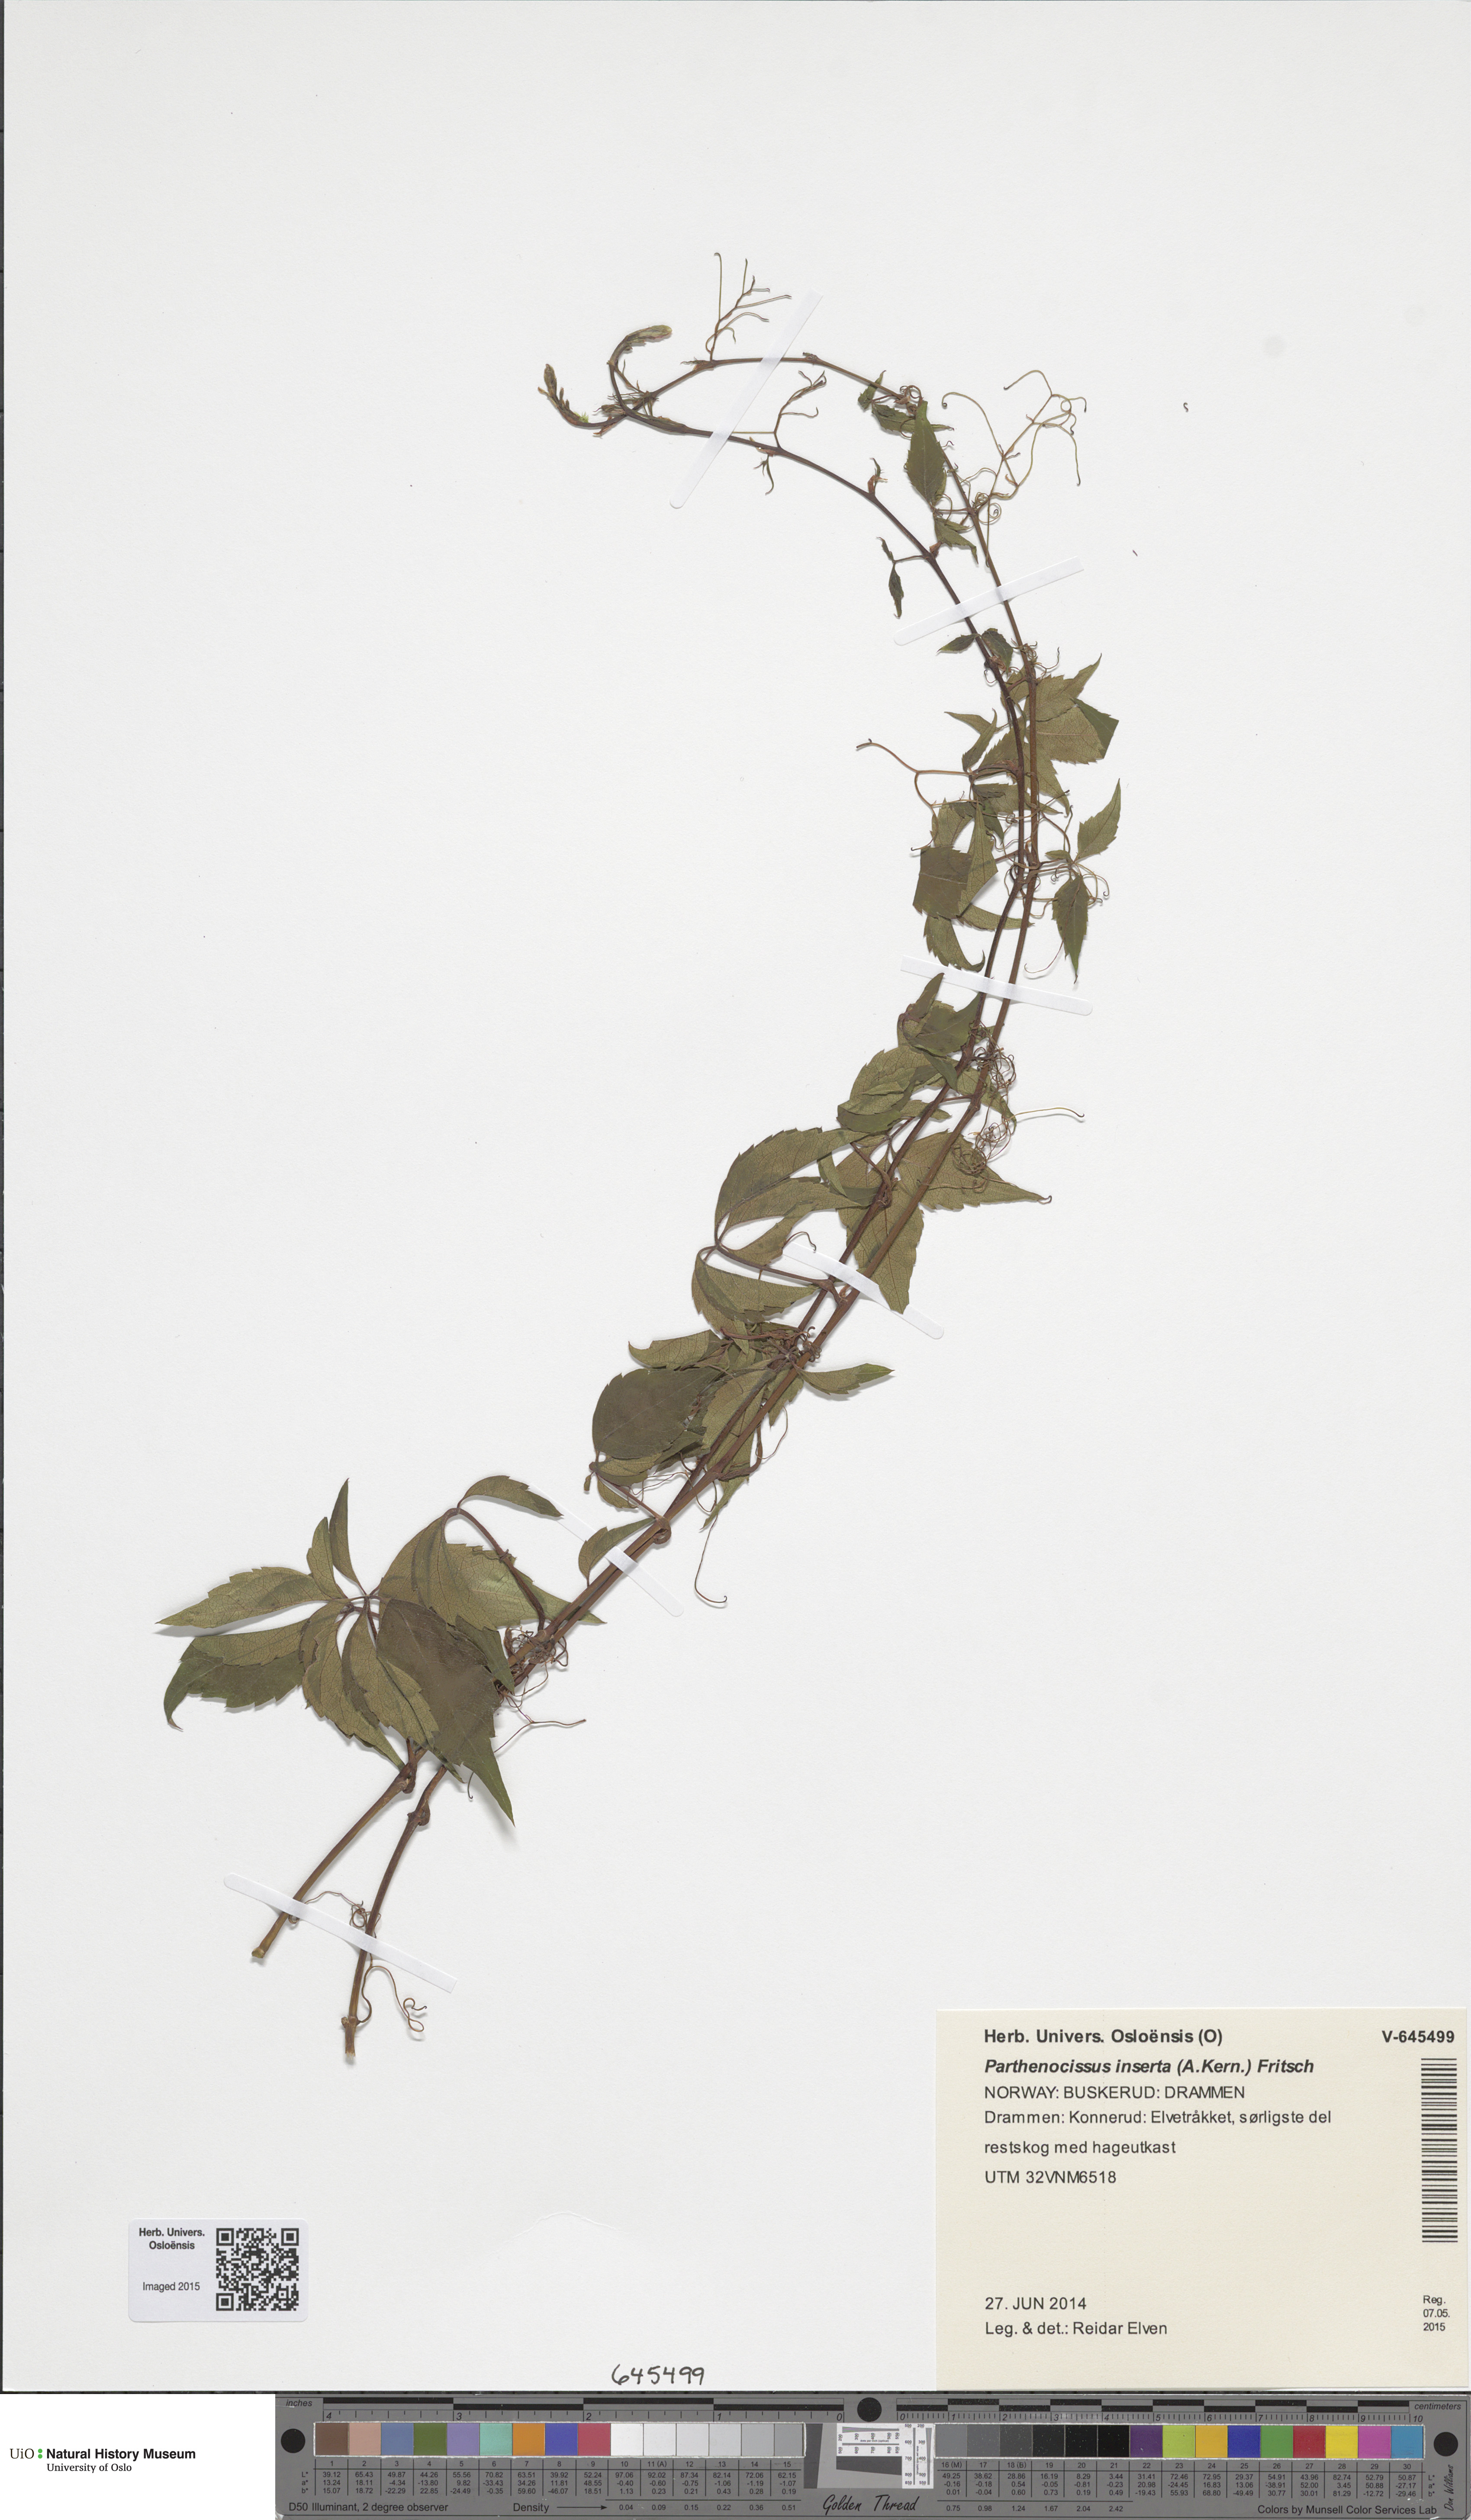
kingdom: Plantae
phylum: Tracheophyta
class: Magnoliopsida
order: Vitales
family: Vitaceae
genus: Parthenocissus
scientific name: Parthenocissus inserta
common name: False virginia-creeper
